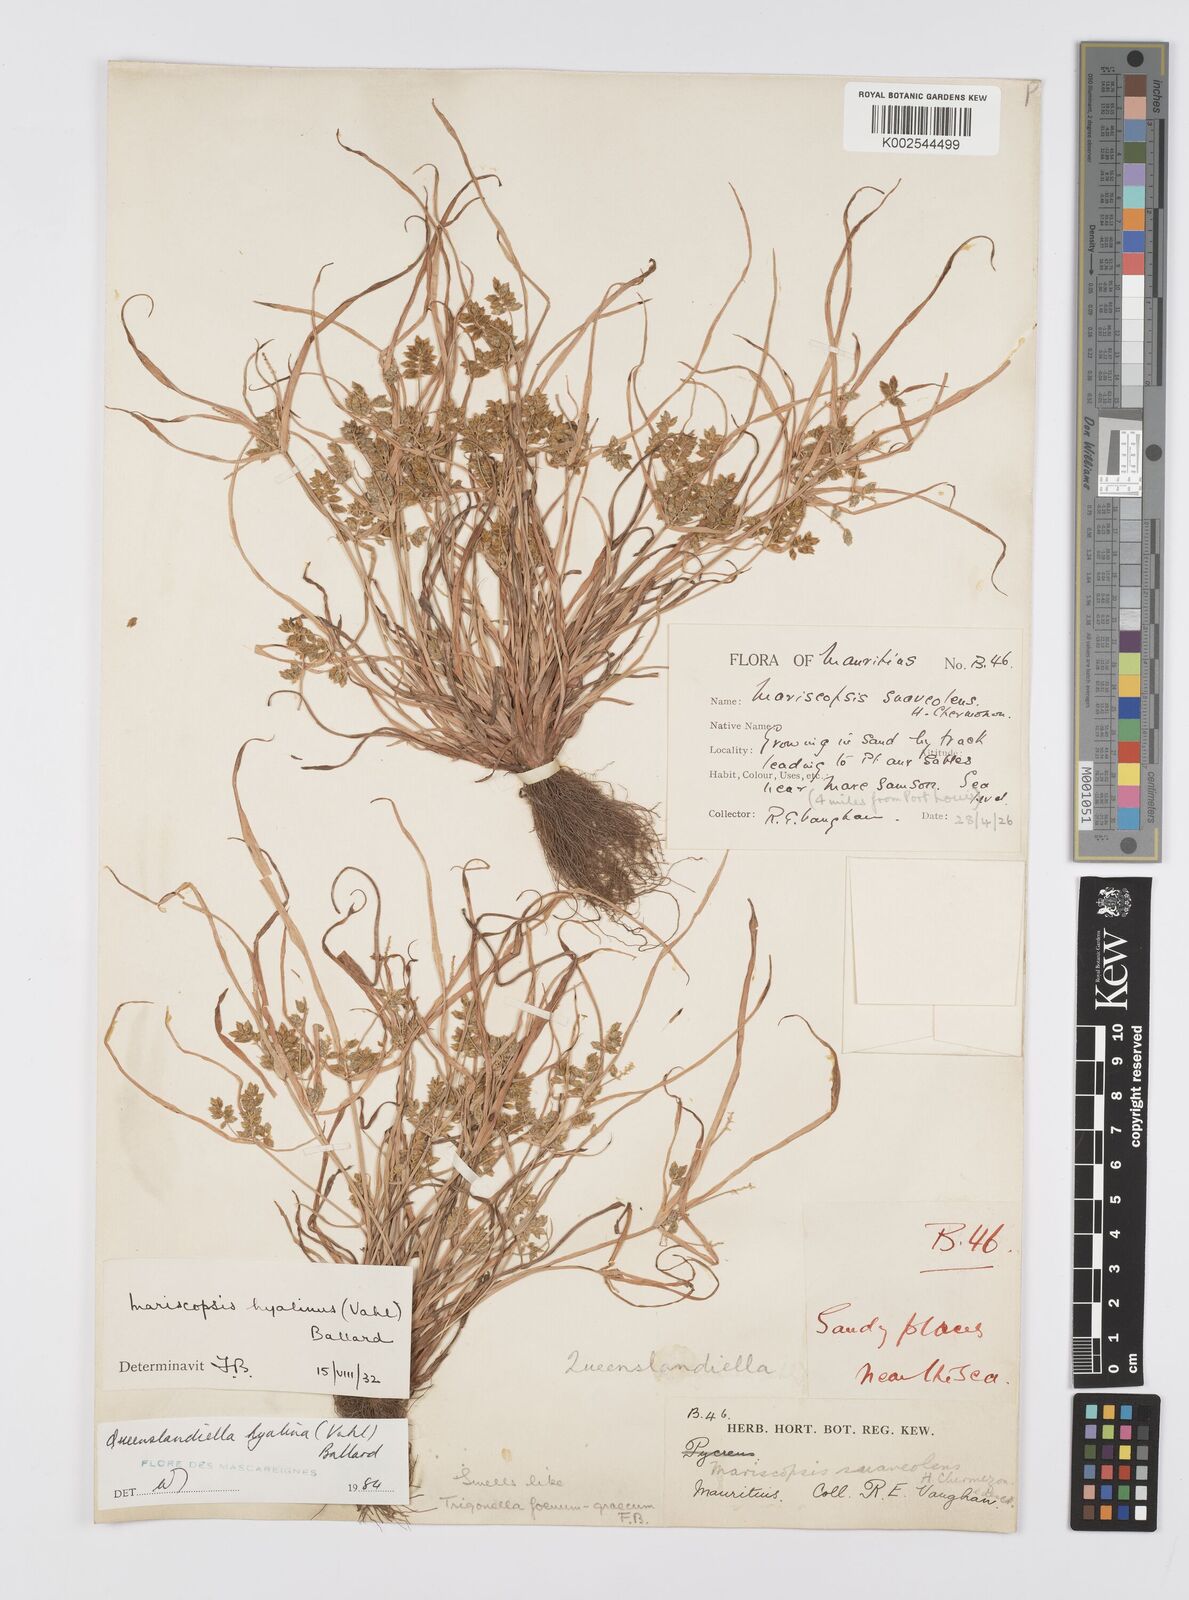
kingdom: Plantae
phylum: Tracheophyta
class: Liliopsida
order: Poales
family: Cyperaceae
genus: Cyperus
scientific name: Cyperus hyalinus
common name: Queensland sedge
